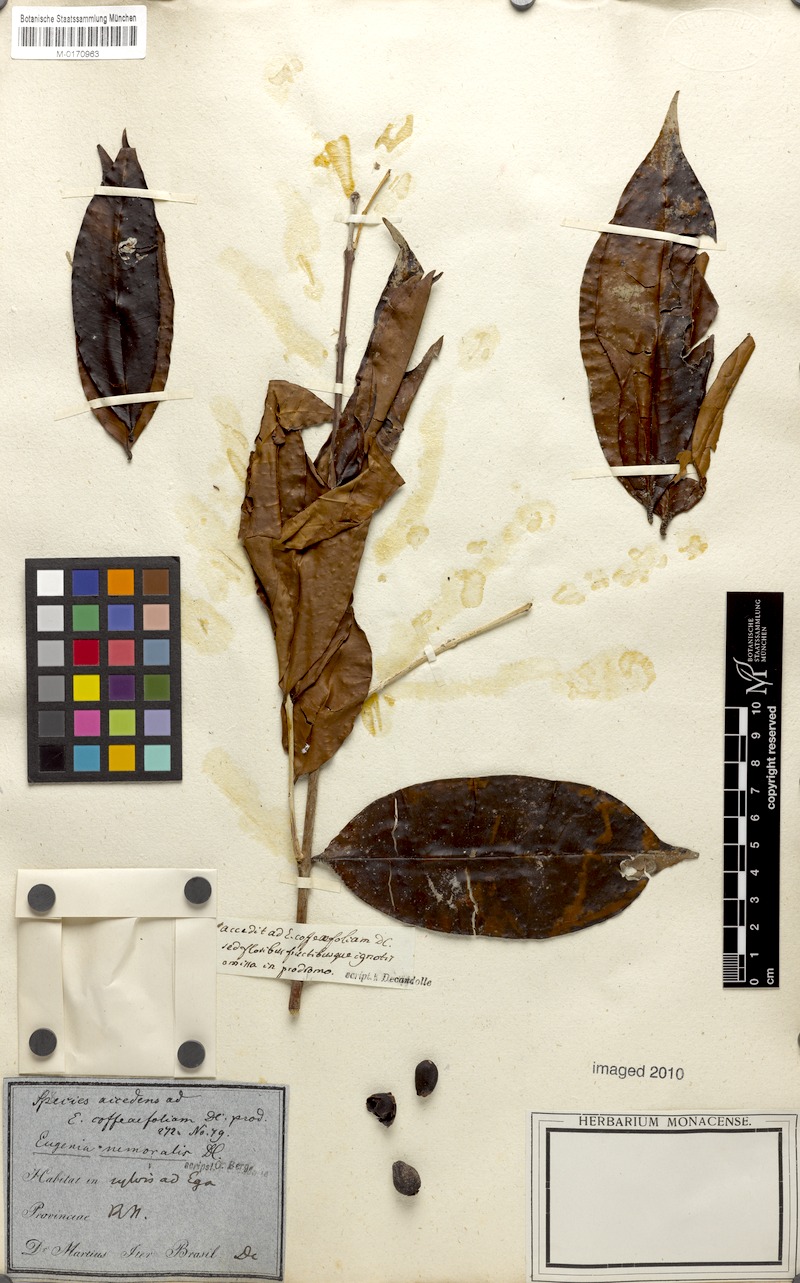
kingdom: Plantae
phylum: Tracheophyta
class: Magnoliopsida
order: Myrtales
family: Myrtaceae
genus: Eugenia
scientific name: Eugenia ferreiraeana
